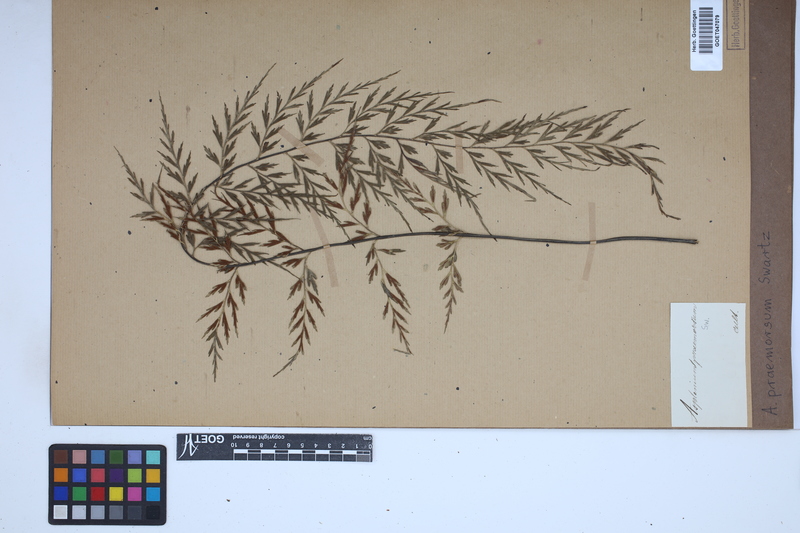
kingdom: Plantae
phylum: Tracheophyta
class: Polypodiopsida
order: Polypodiales
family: Aspleniaceae
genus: Asplenium
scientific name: Asplenium praemorsum
